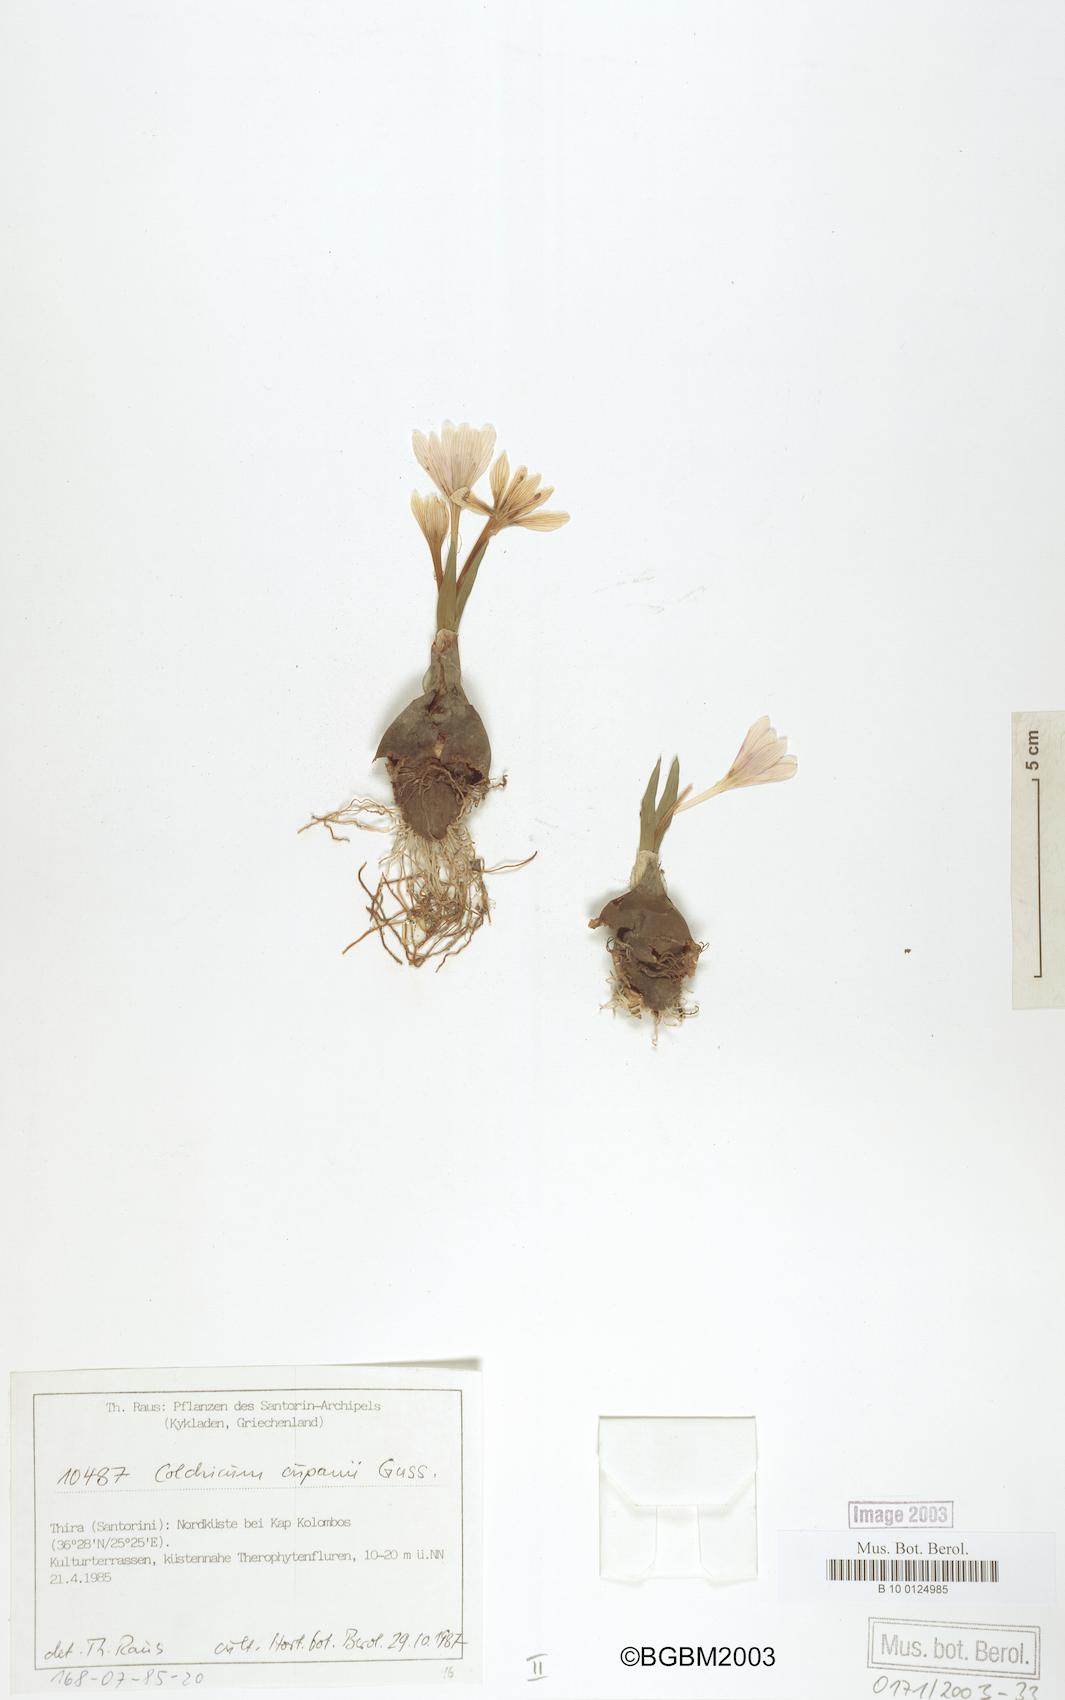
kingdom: Plantae
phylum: Tracheophyta
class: Liliopsida
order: Liliales
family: Colchicaceae
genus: Colchicum
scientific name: Colchicum cupanii
